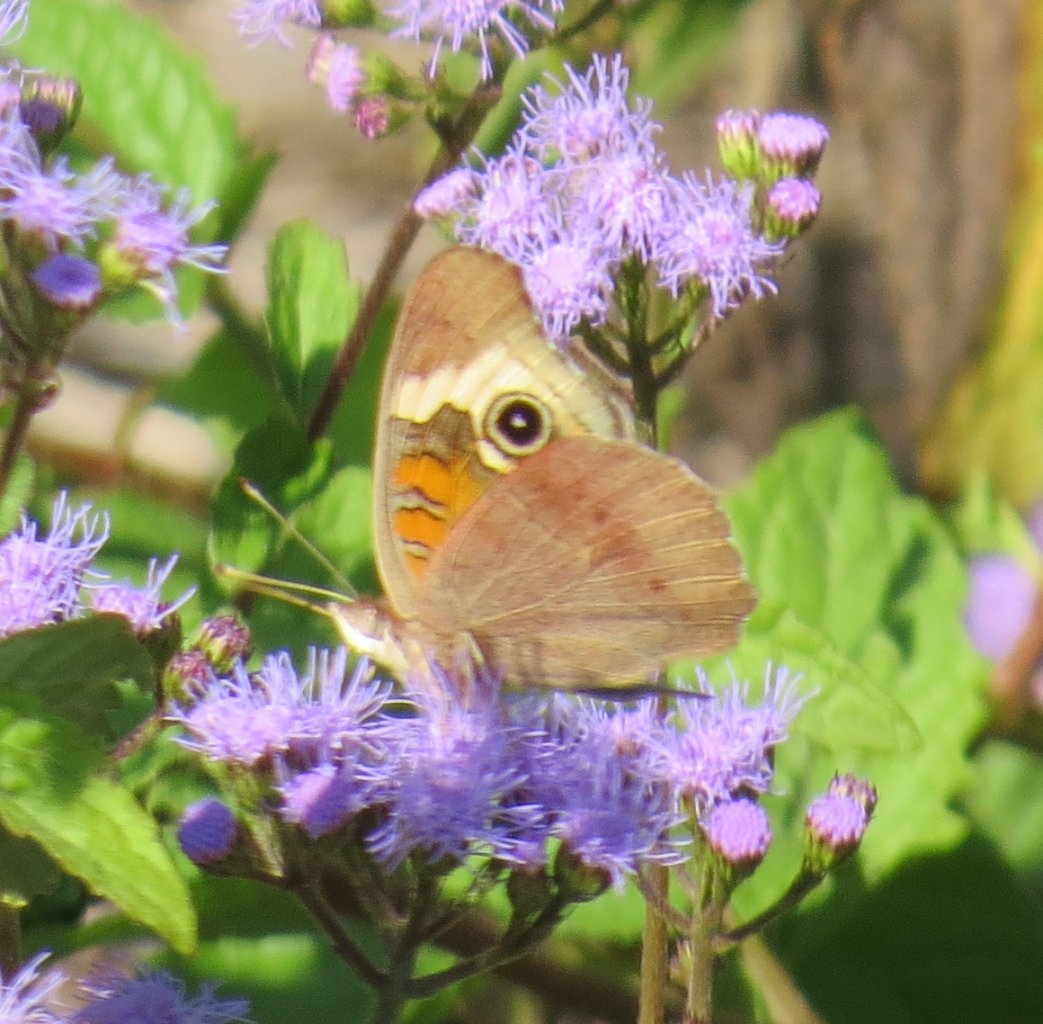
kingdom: Animalia
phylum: Arthropoda
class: Insecta
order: Lepidoptera
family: Nymphalidae
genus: Junonia
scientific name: Junonia coenia
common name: Common Buckeye
